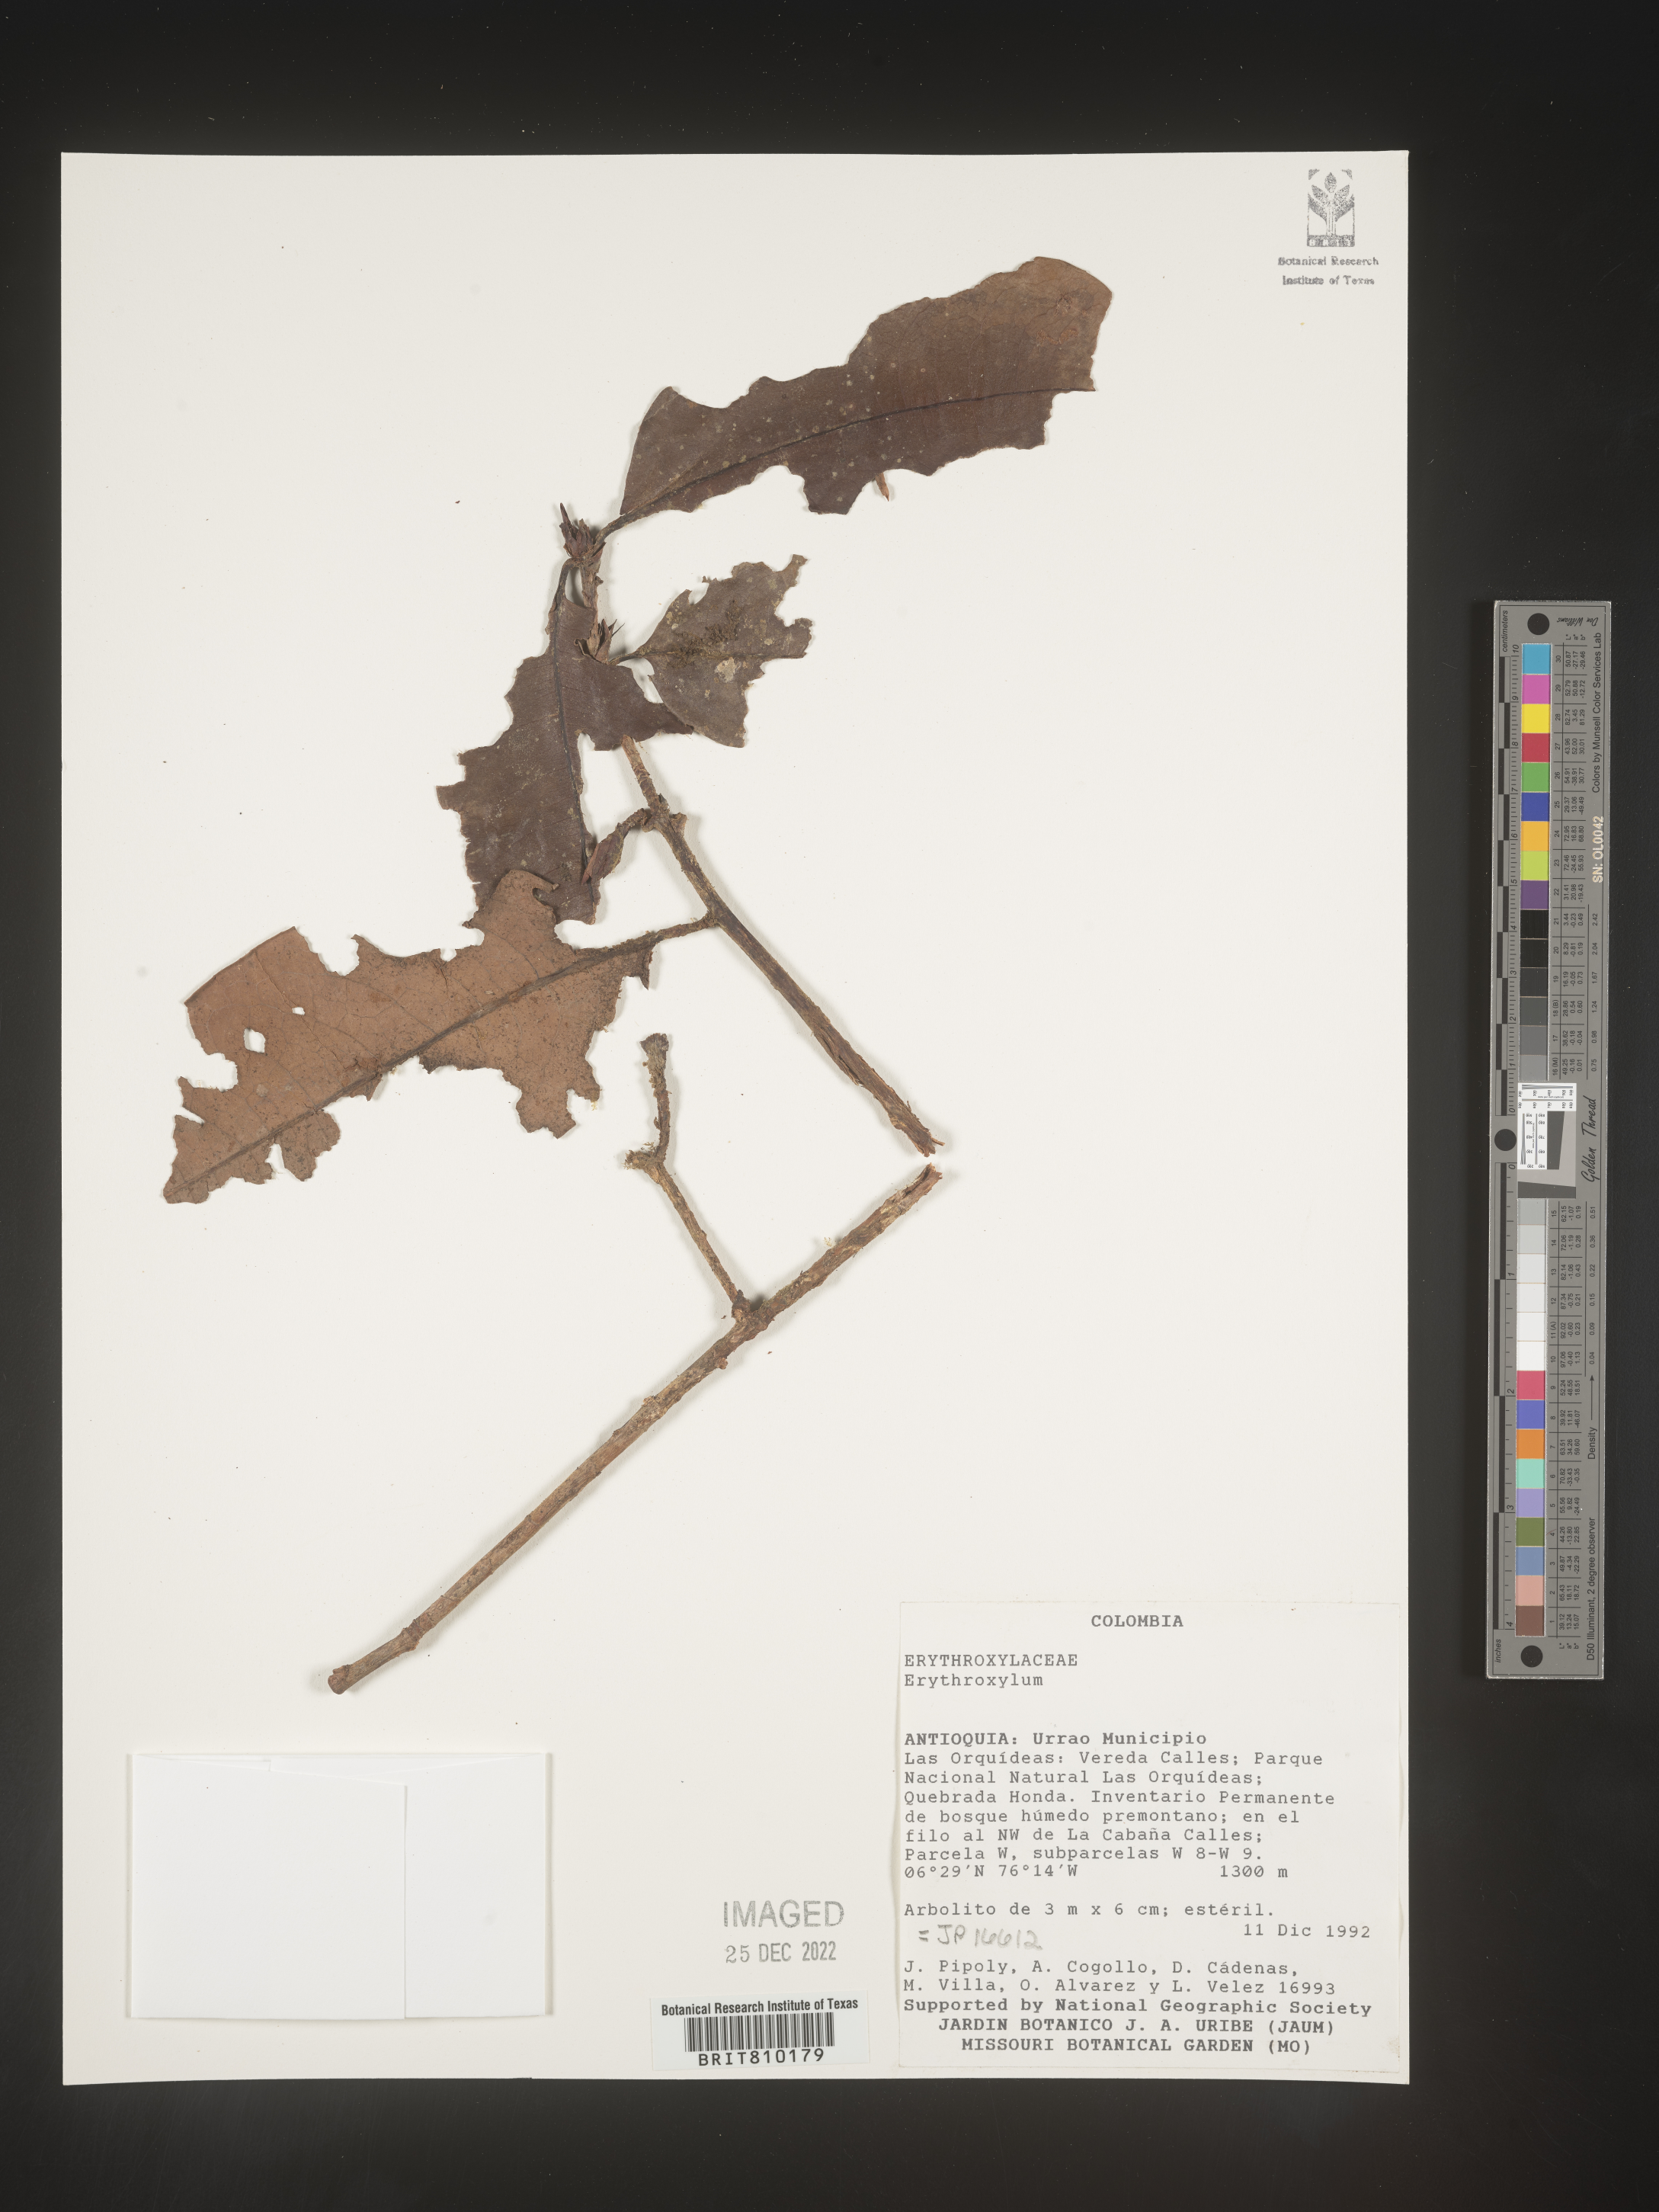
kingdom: Plantae
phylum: Tracheophyta
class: Magnoliopsida
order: Malpighiales
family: Erythroxylaceae
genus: Erythroxylum
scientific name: Erythroxylum
